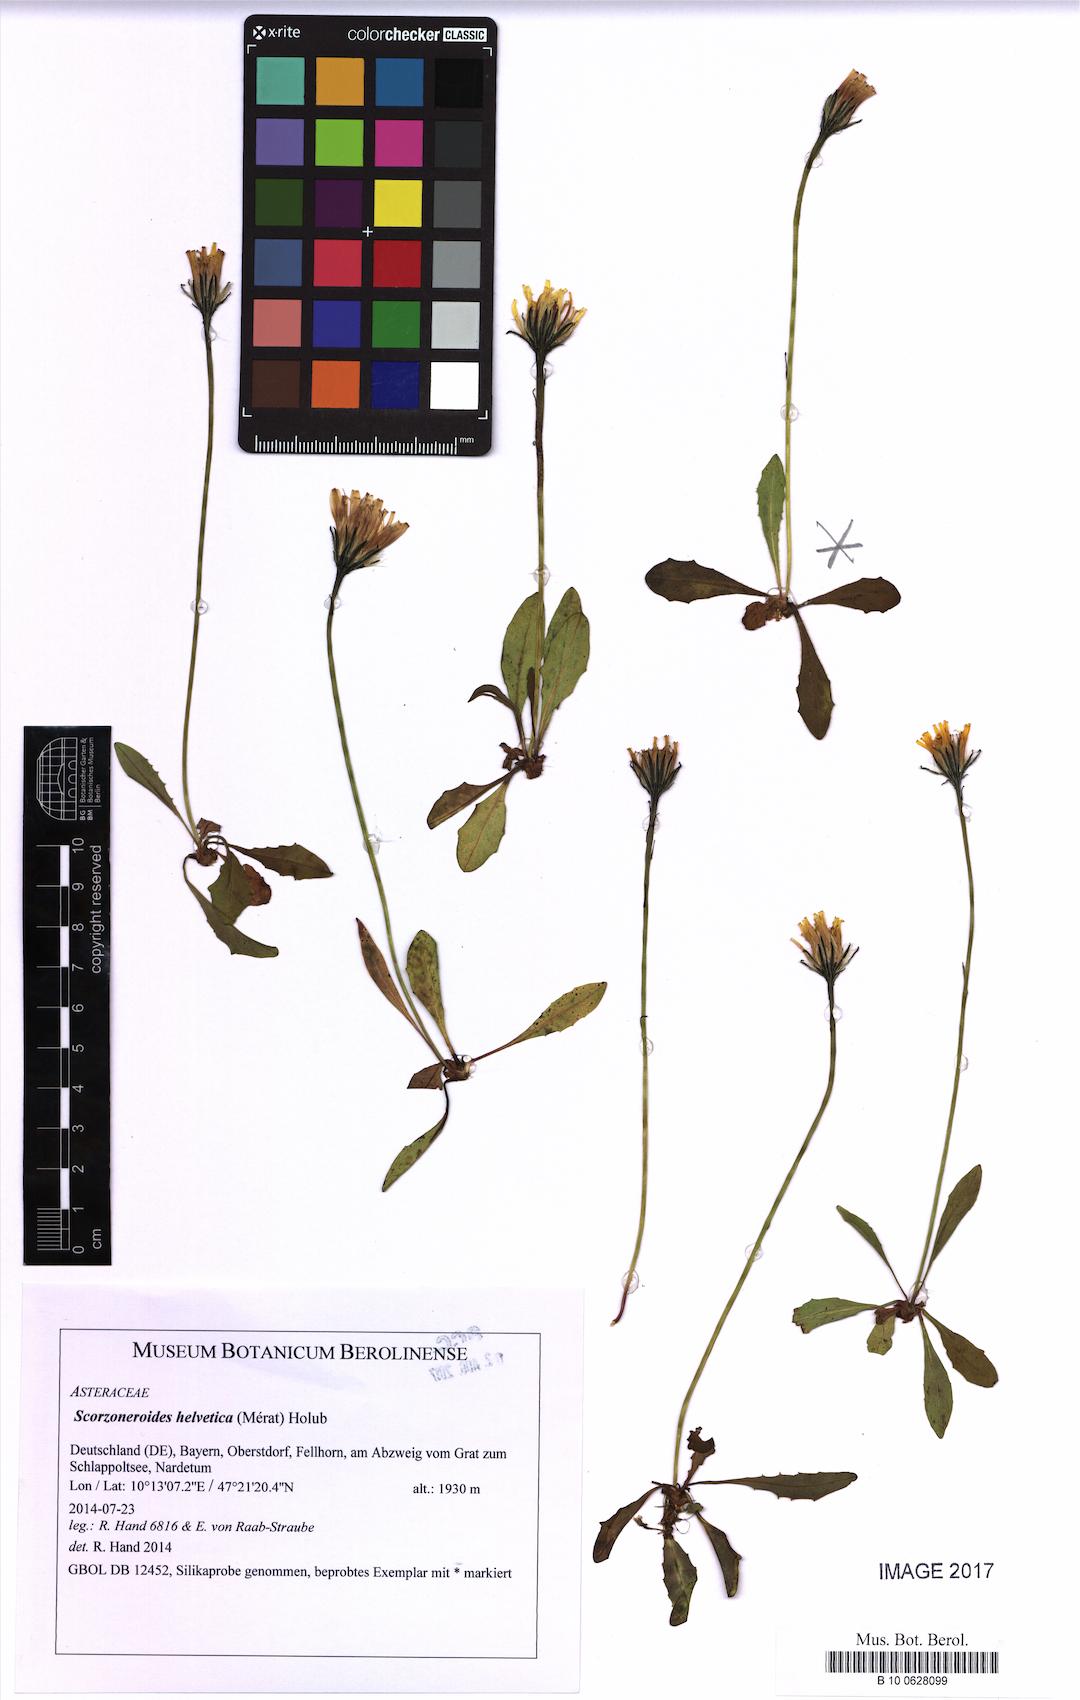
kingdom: Plantae
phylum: Tracheophyta
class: Magnoliopsida
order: Asterales
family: Asteraceae
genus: Scorzoneroides
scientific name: Scorzoneroides helvetica
